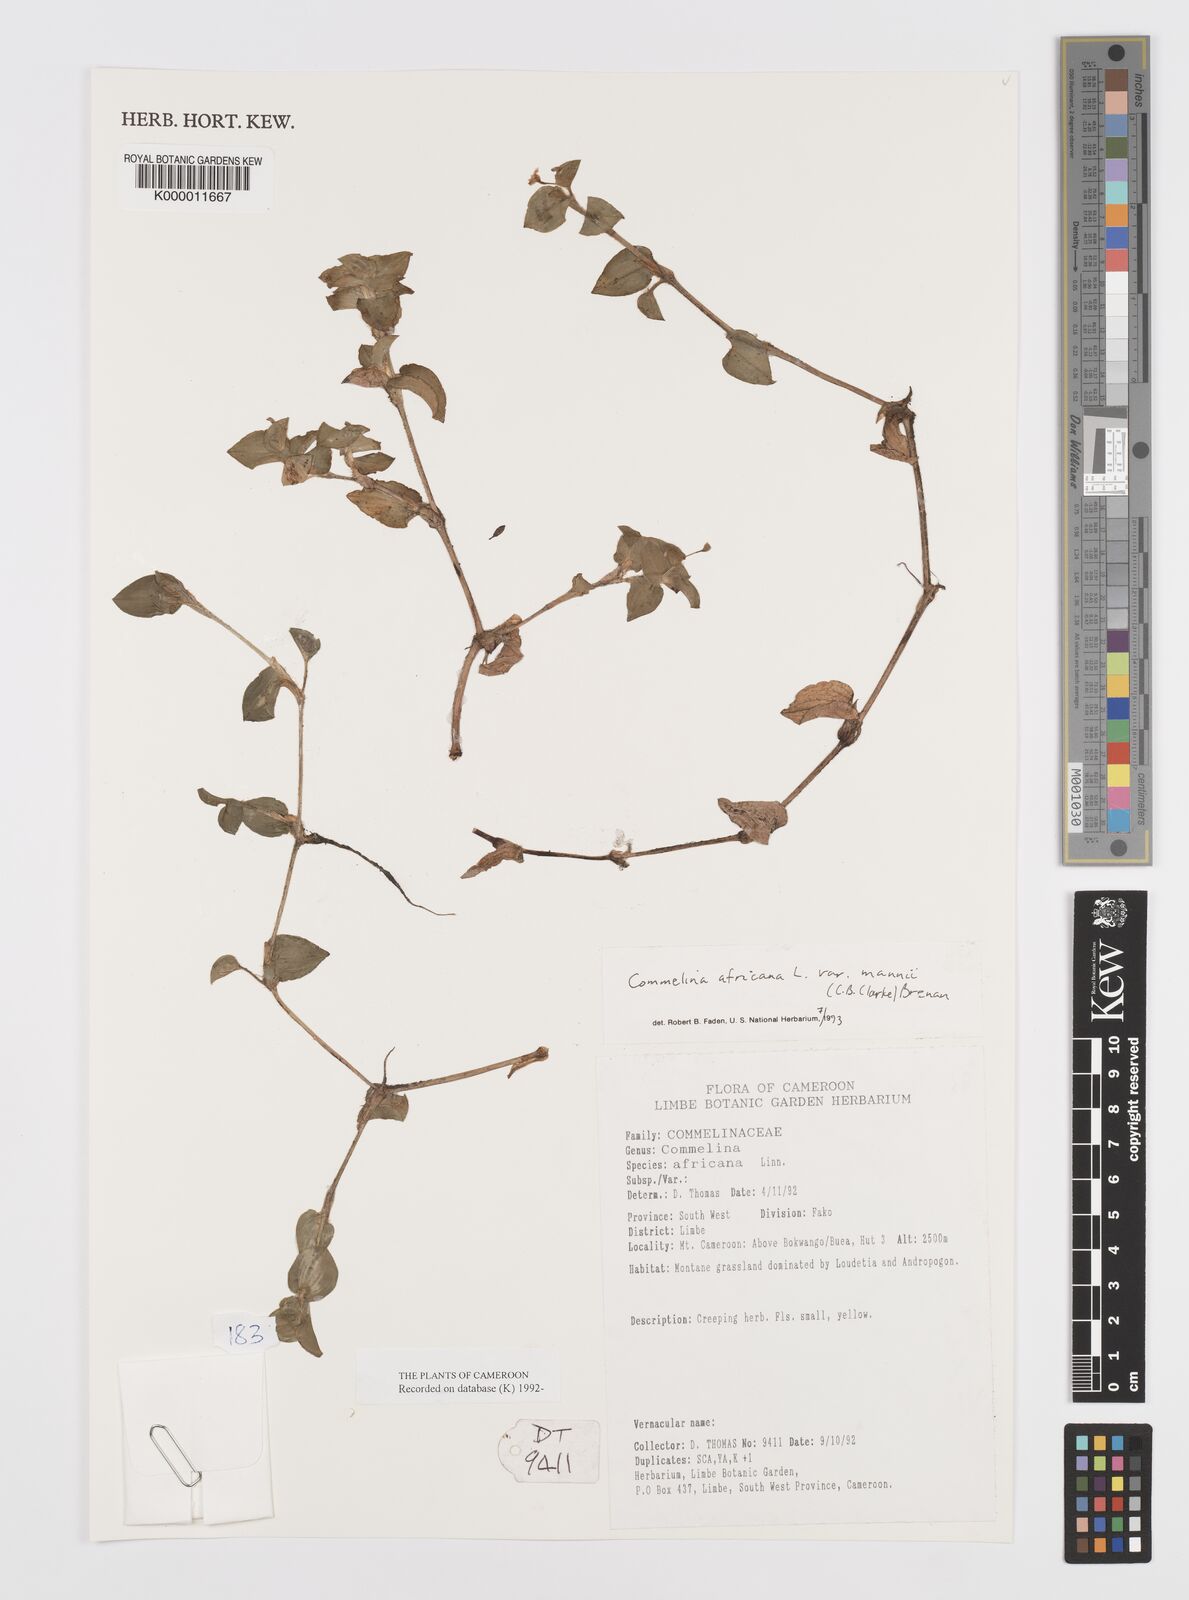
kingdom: Plantae
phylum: Tracheophyta
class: Liliopsida
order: Commelinales
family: Commelinaceae
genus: Commelina
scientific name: Commelina africana
